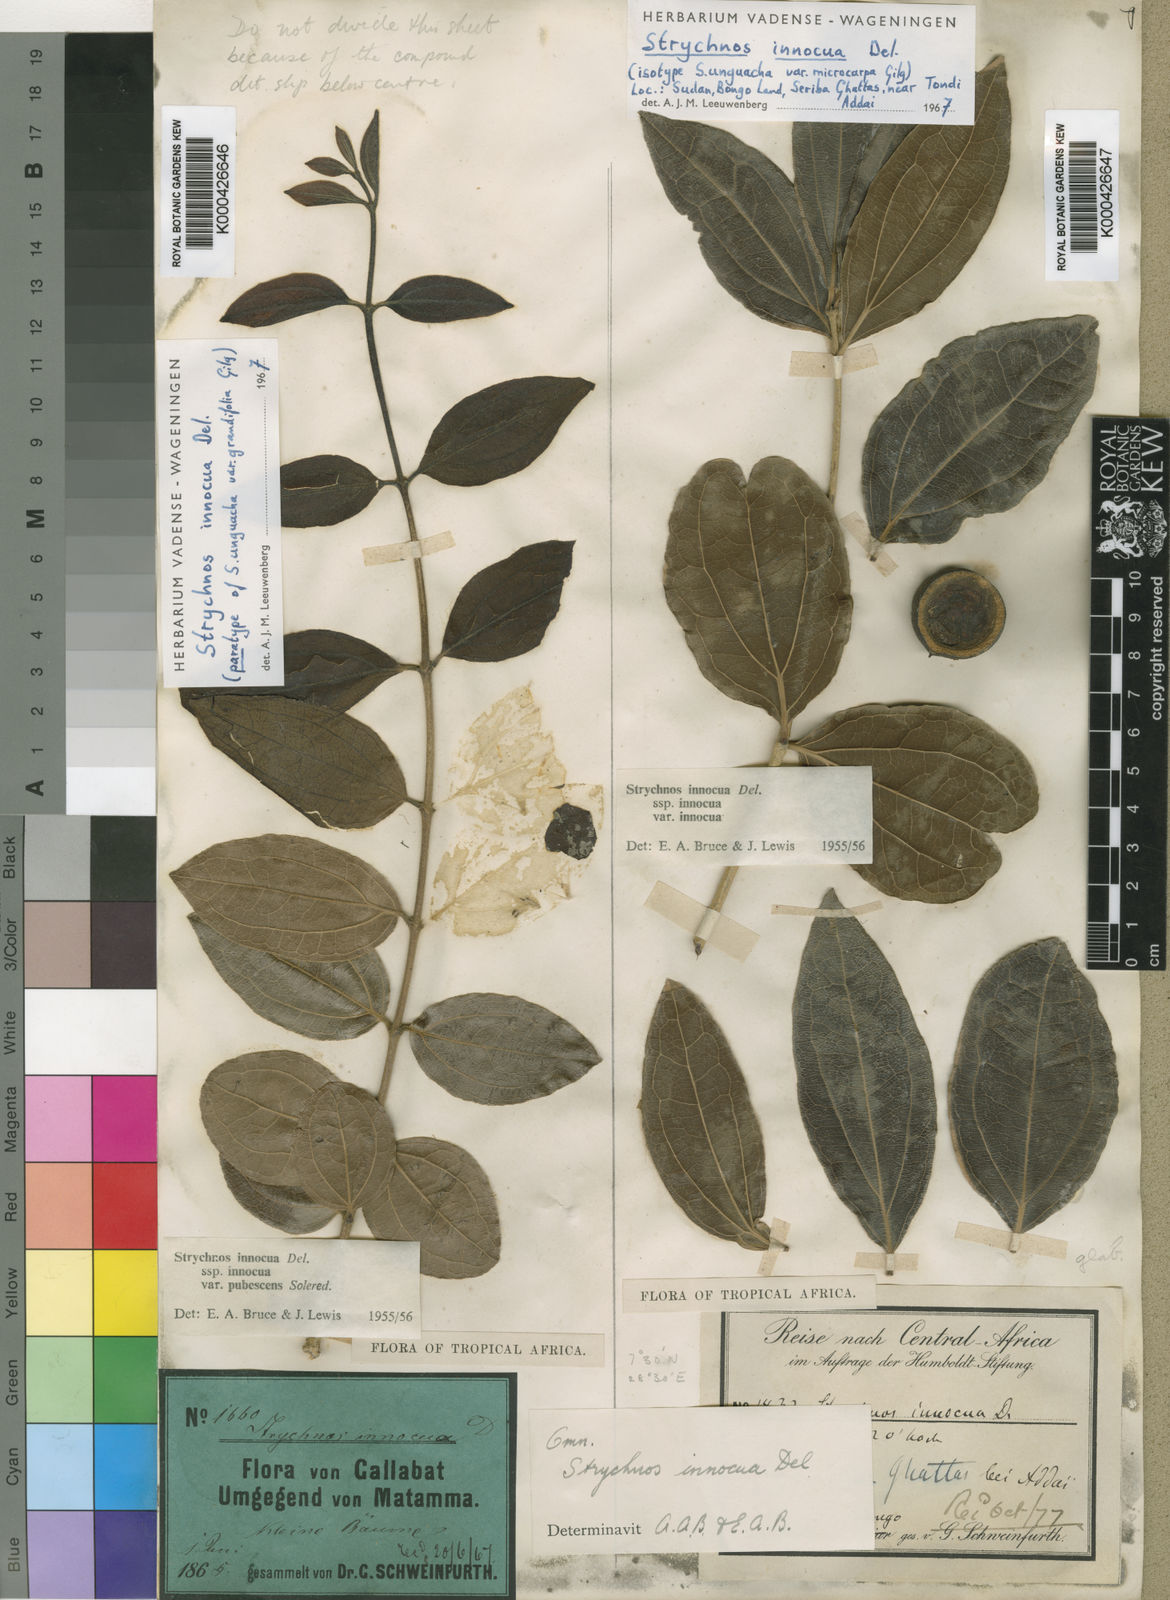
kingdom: Plantae
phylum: Tracheophyta
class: Magnoliopsida
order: Gentianales
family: Loganiaceae
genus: Strychnos
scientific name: Strychnos innocua
